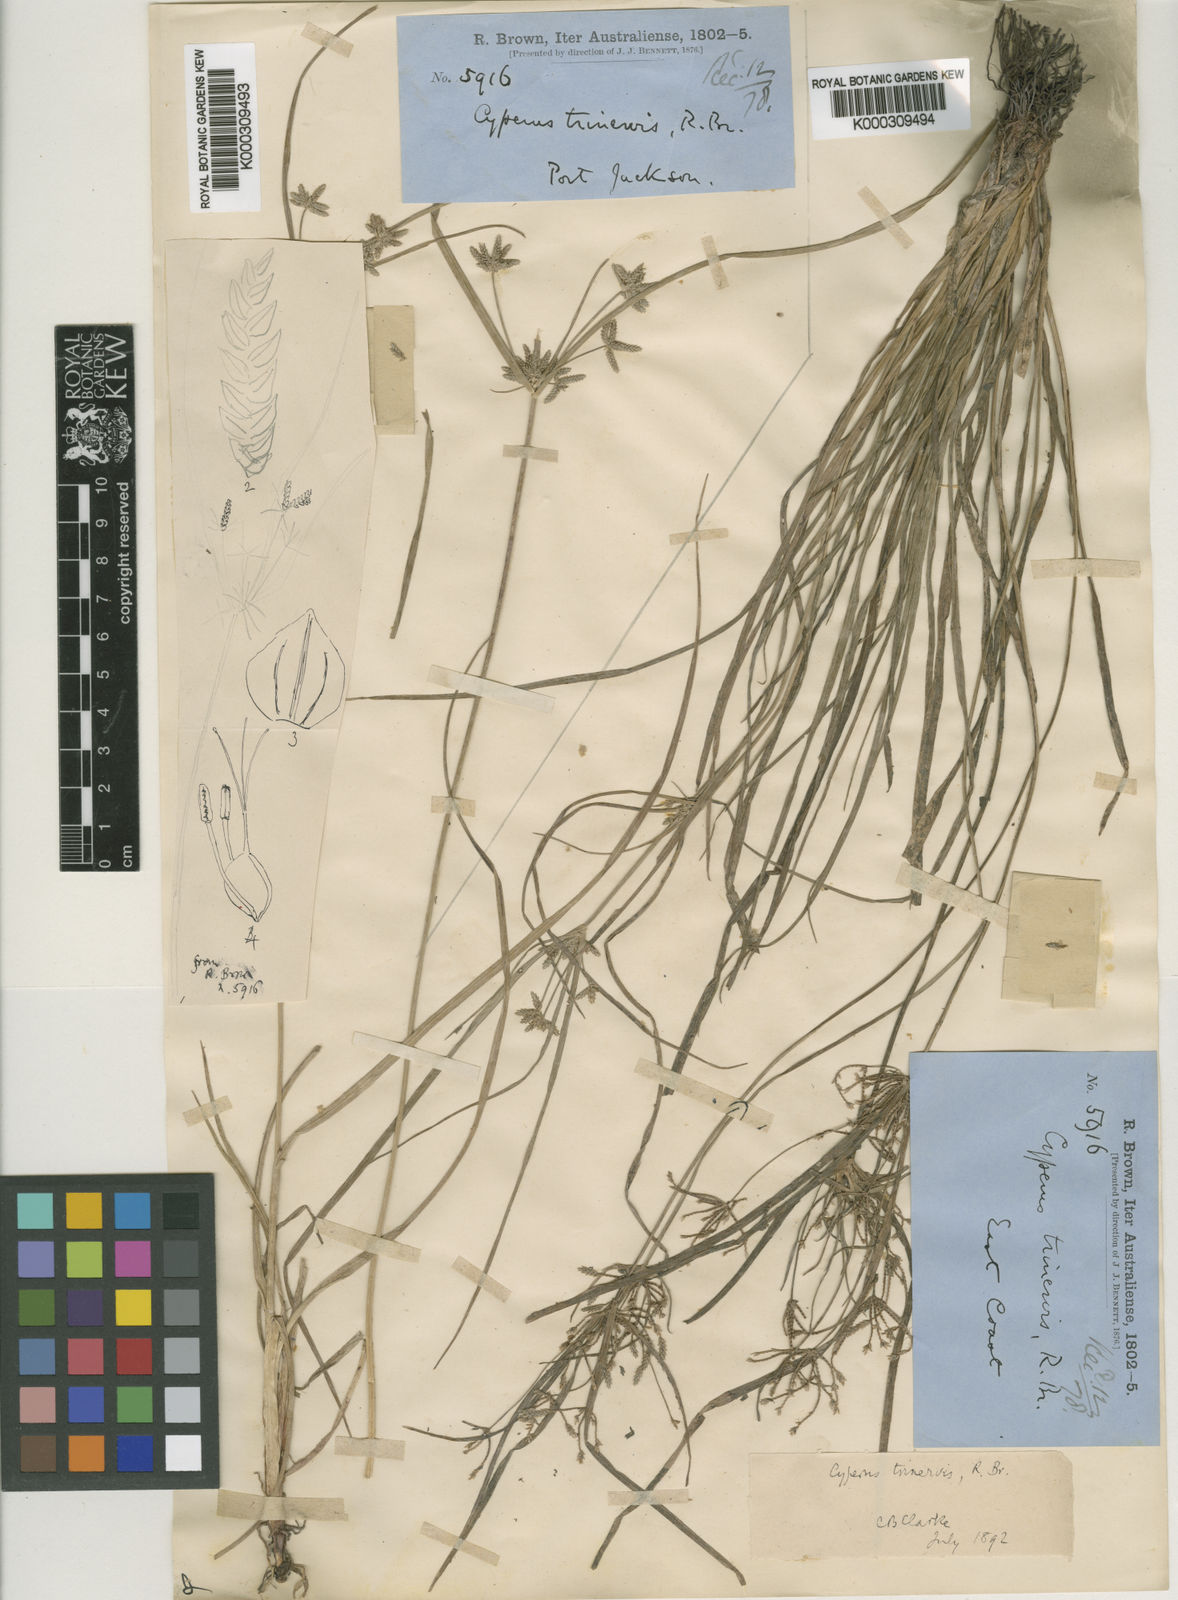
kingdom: Plantae
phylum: Tracheophyta
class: Liliopsida
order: Poales
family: Cyperaceae
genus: Cyperus
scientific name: Cyperus trinervis
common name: Australian flatsedge
